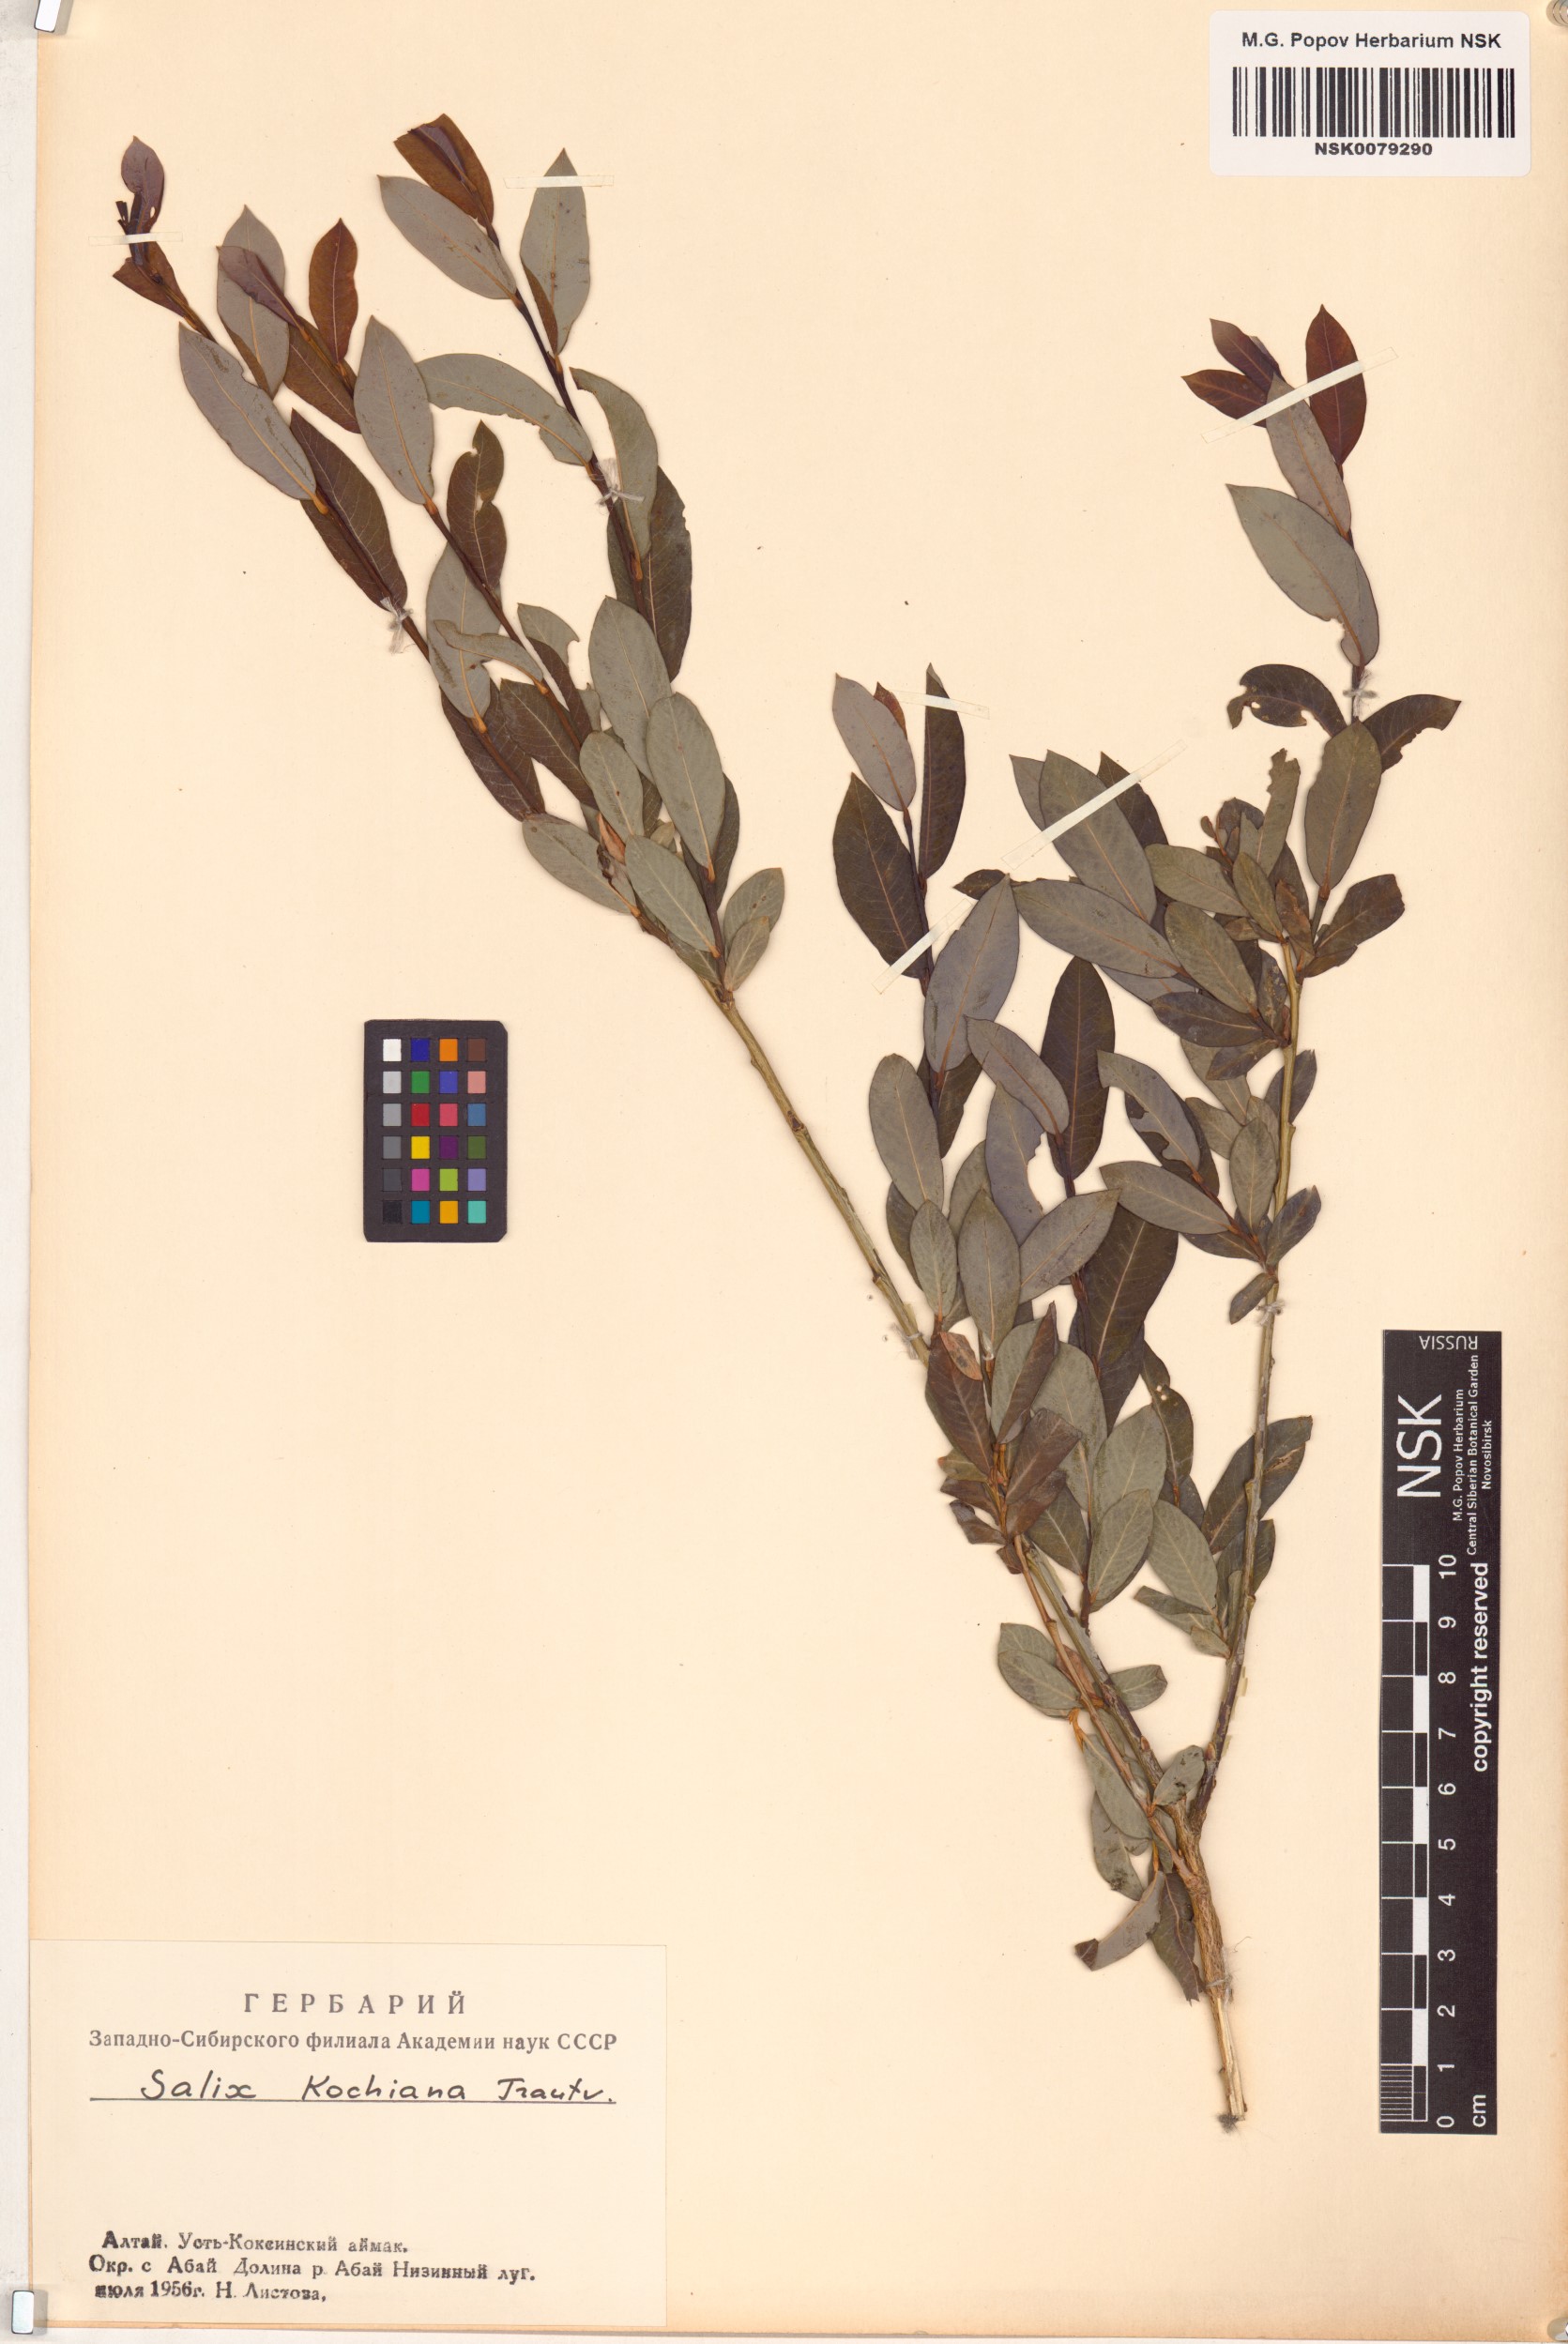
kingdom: Plantae
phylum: Tracheophyta
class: Magnoliopsida
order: Malpighiales
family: Salicaceae
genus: Salix
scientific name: Salix kochiana
